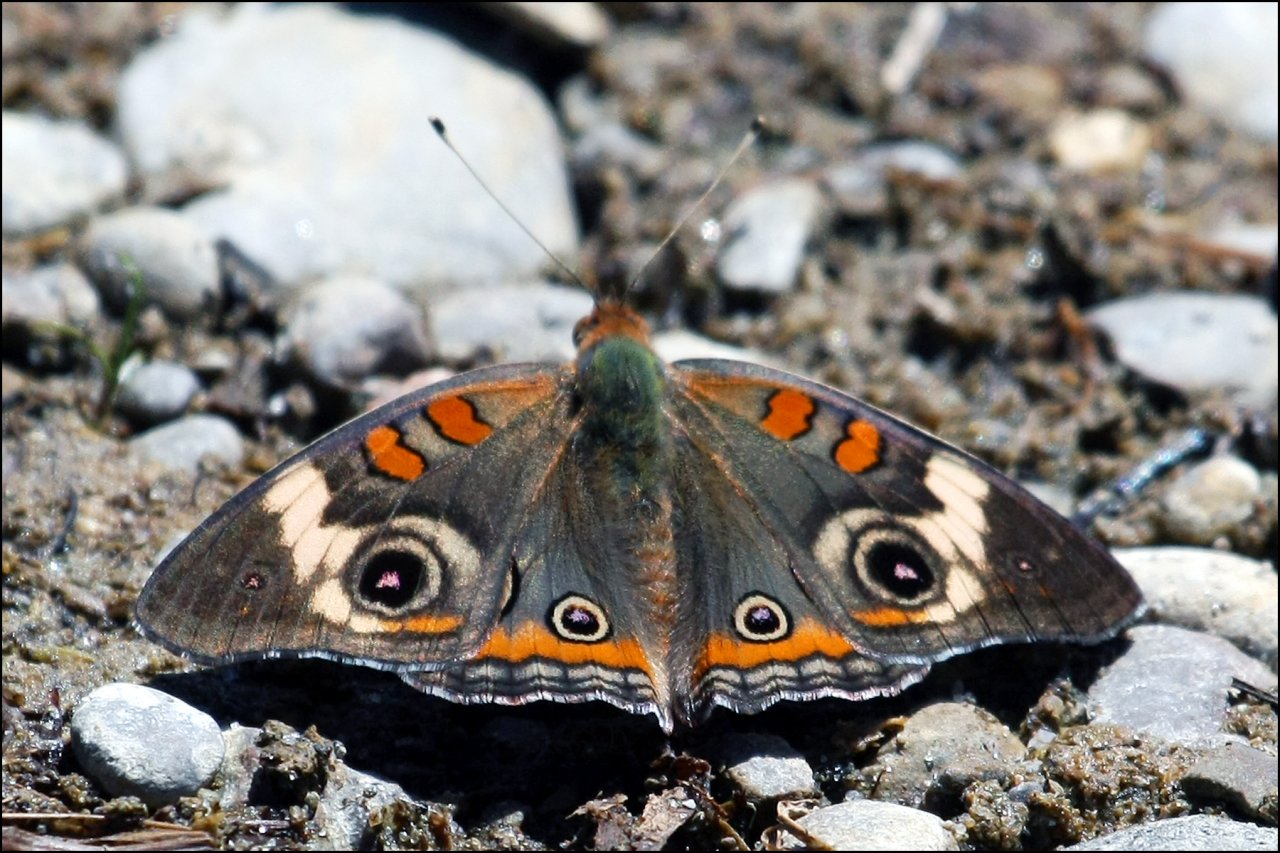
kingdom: Animalia
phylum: Arthropoda
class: Insecta
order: Lepidoptera
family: Nymphalidae
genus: Junonia
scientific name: Junonia coenia
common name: Common Buckeye
